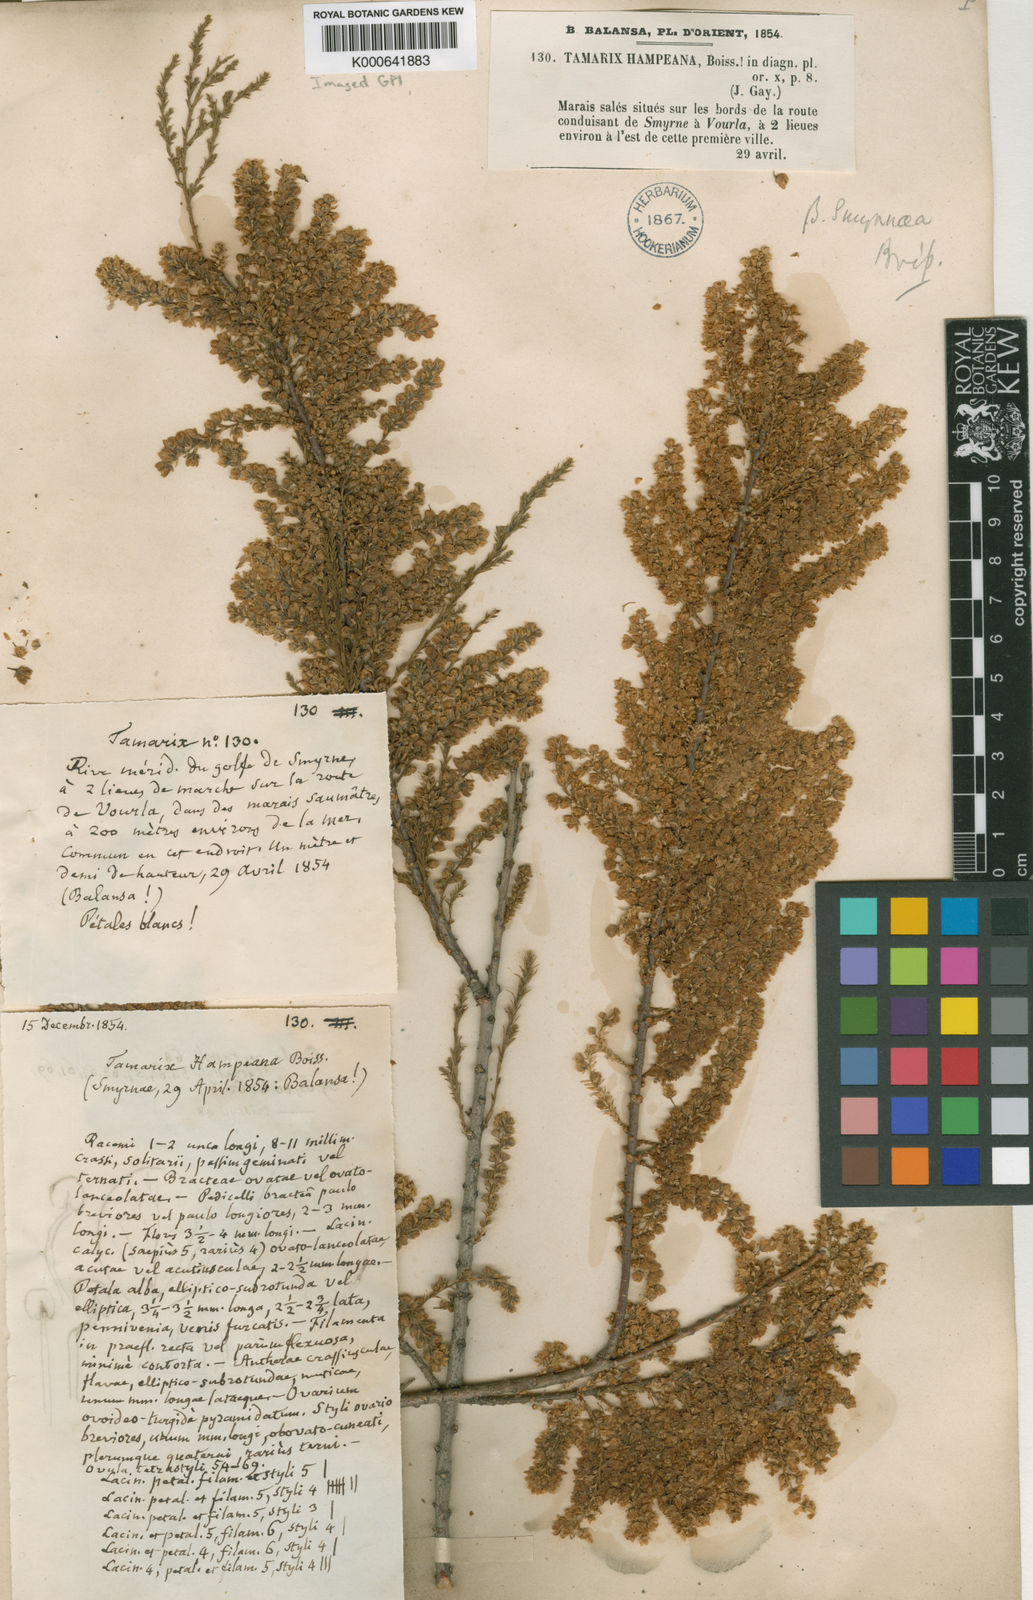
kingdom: Plantae
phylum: Tracheophyta
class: Magnoliopsida
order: Caryophyllales
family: Tamaricaceae
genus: Tamarix
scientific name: Tamarix hampeana
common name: Hampe’s tamarisk
